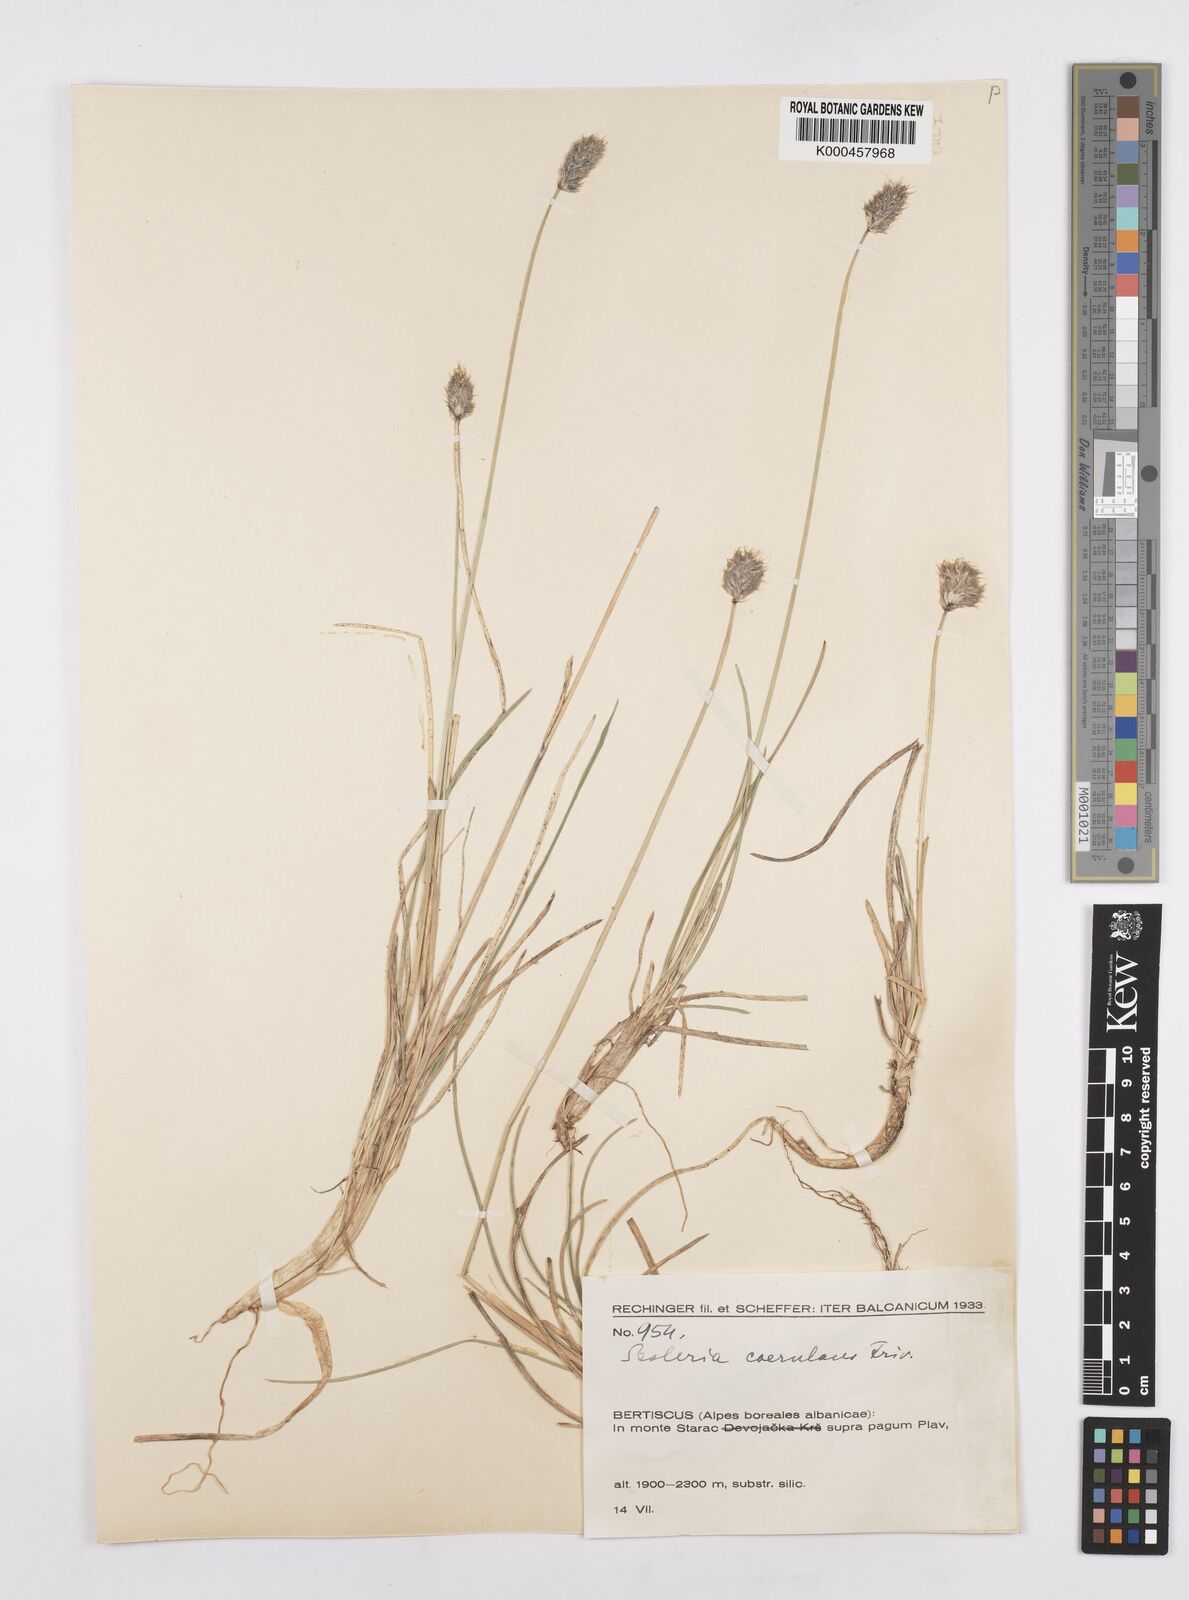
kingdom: Plantae
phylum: Tracheophyta
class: Liliopsida
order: Poales
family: Poaceae
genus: Sesleria
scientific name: Sesleria coerulans
